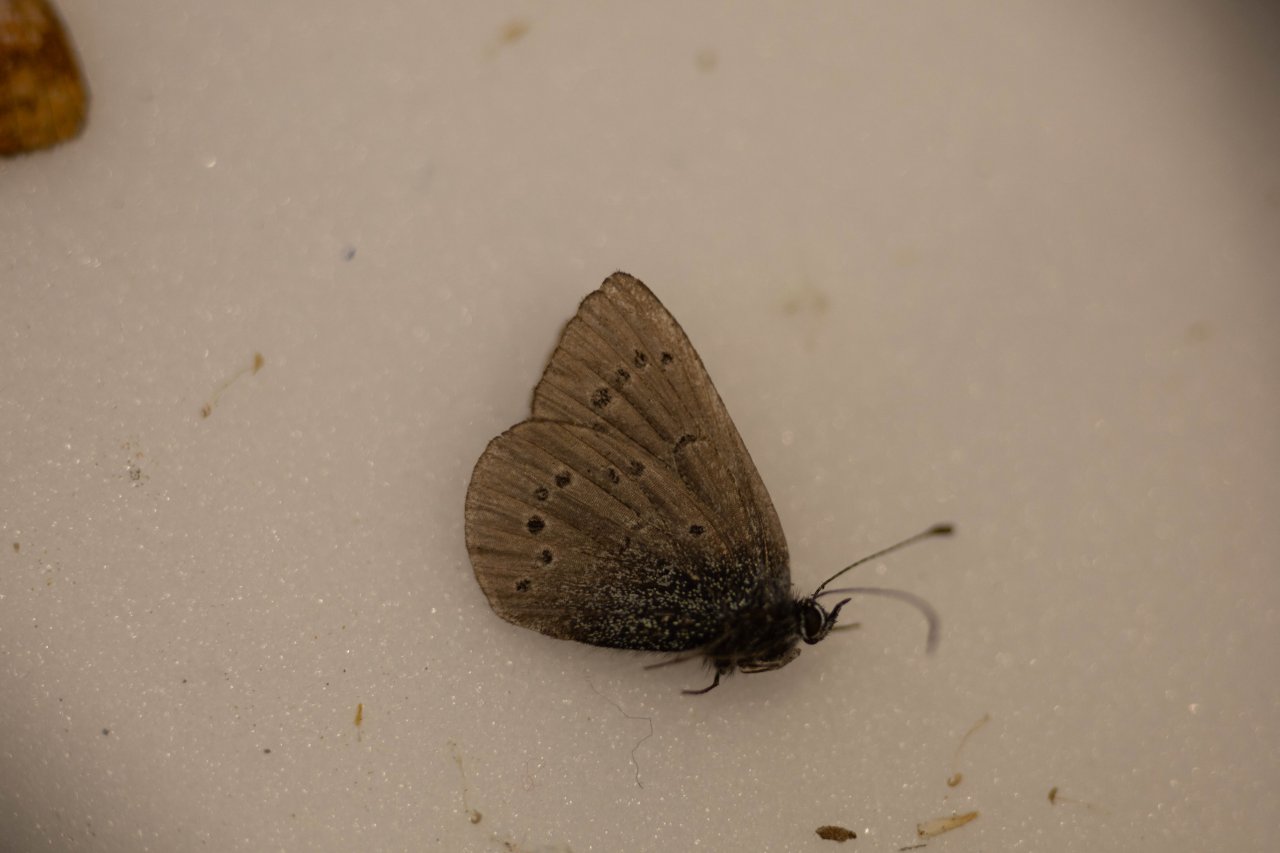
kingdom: Animalia
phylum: Arthropoda
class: Insecta
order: Lepidoptera
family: Lycaenidae
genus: Glaucopsyche
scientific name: Glaucopsyche lygdamus
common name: Silvery Blue
